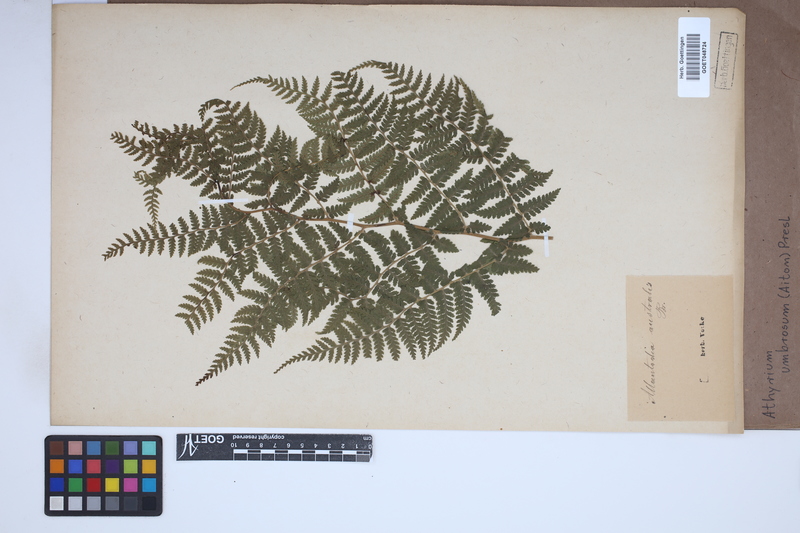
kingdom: Plantae
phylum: Tracheophyta
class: Polypodiopsida
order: Polypodiales
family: Athyriaceae
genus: Diplazium
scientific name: Diplazium caudatum
